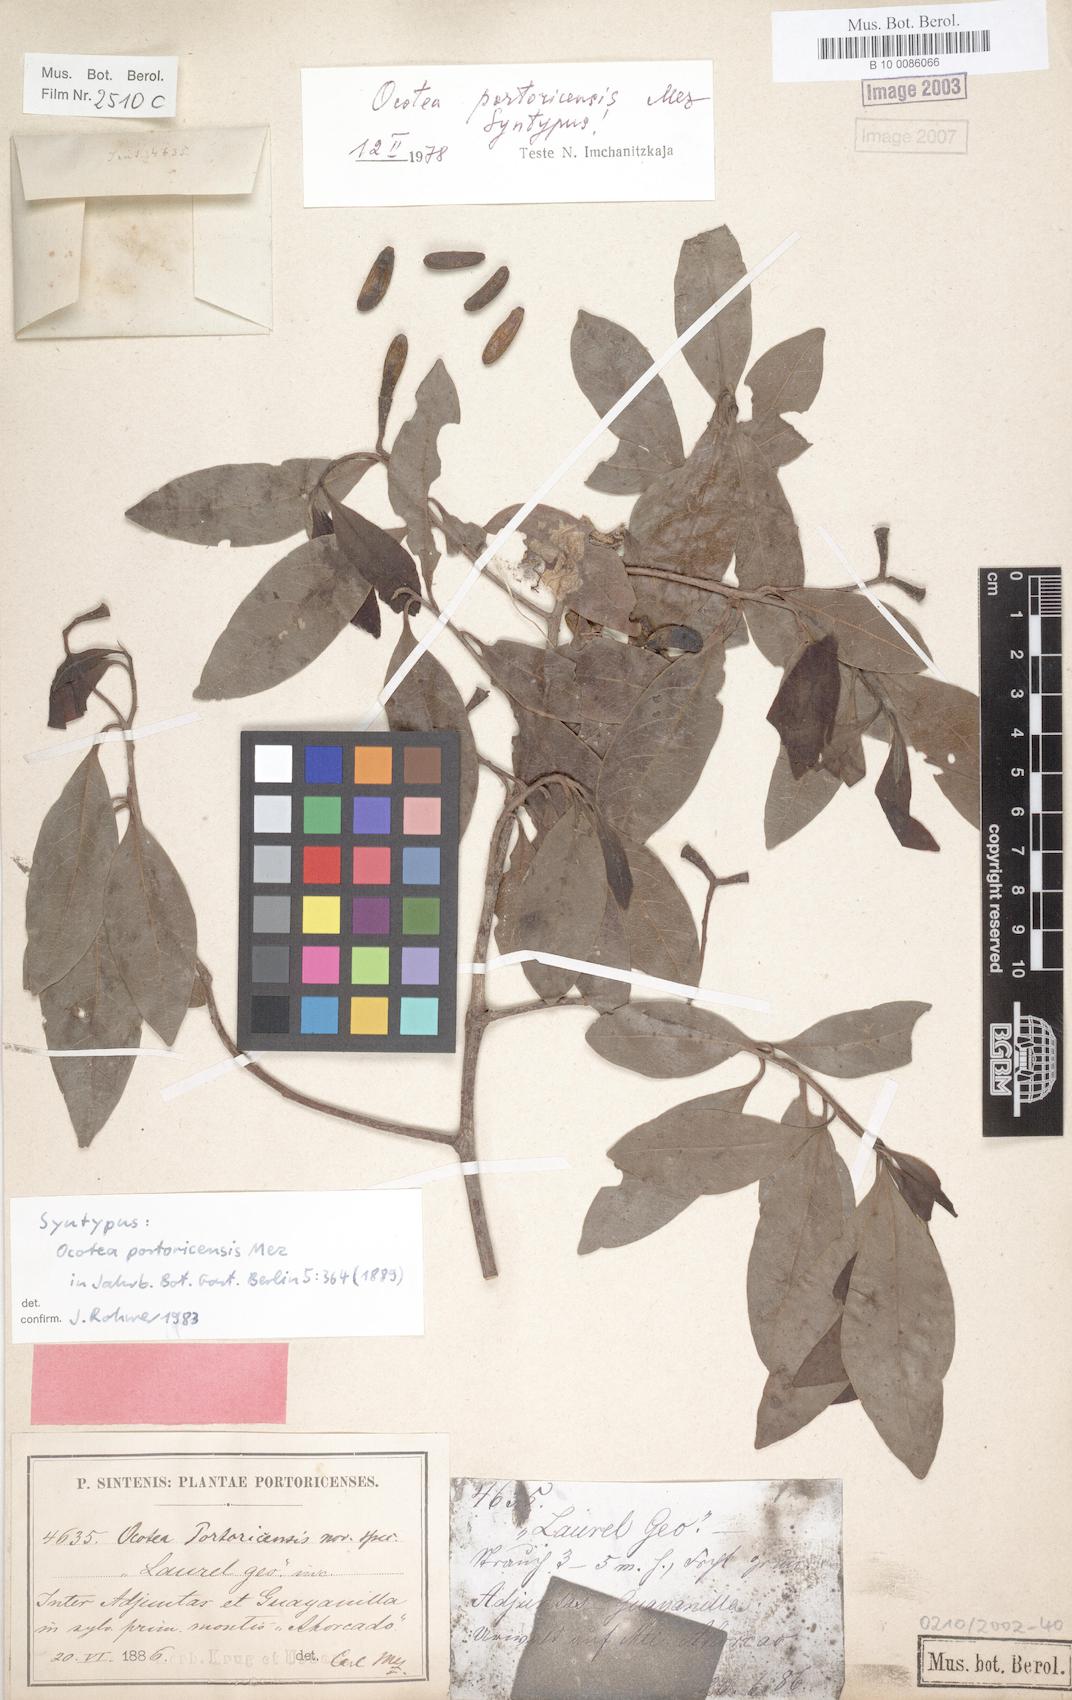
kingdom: Plantae
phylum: Tracheophyta
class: Magnoliopsida
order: Laurales
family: Lauraceae
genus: Ocotea
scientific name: Ocotea portoricensis
